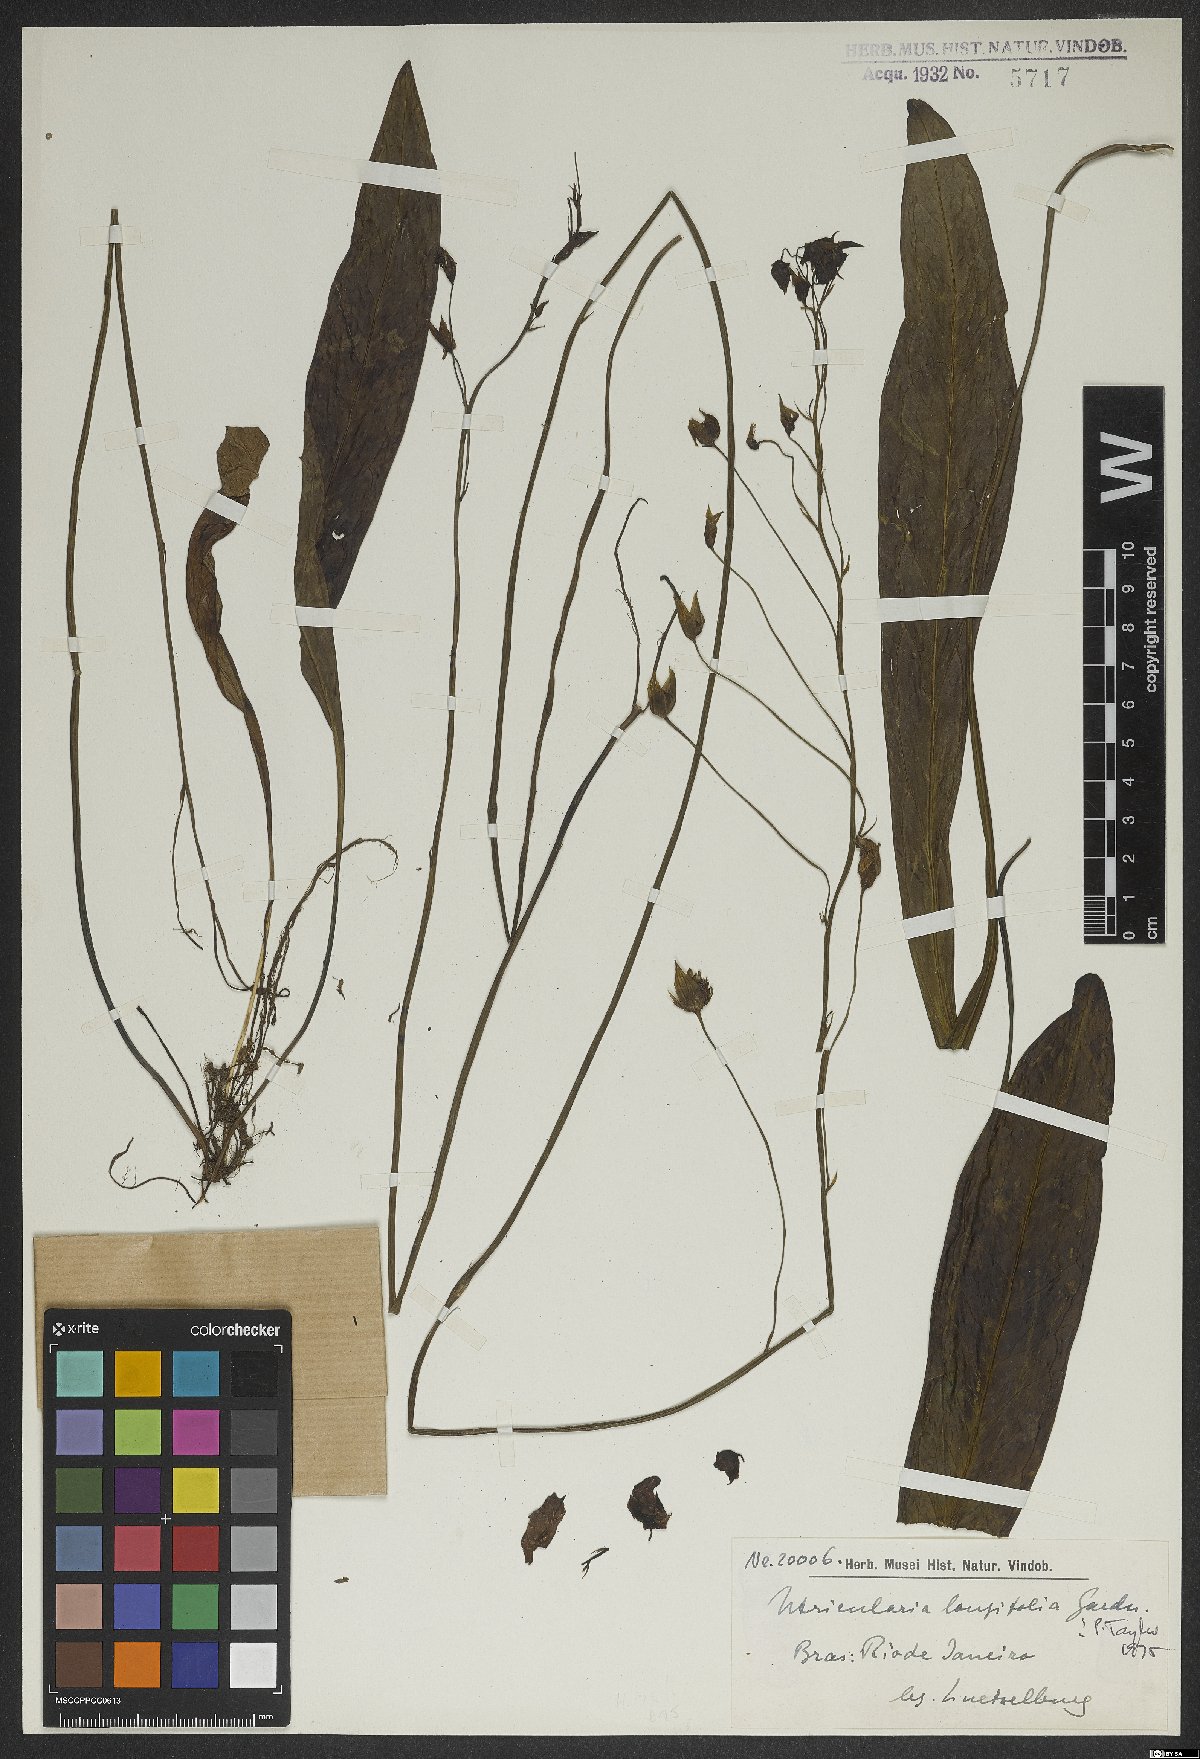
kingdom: Plantae
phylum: Tracheophyta
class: Magnoliopsida
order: Lamiales
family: Lentibulariaceae
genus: Utricularia
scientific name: Utricularia longifolia
